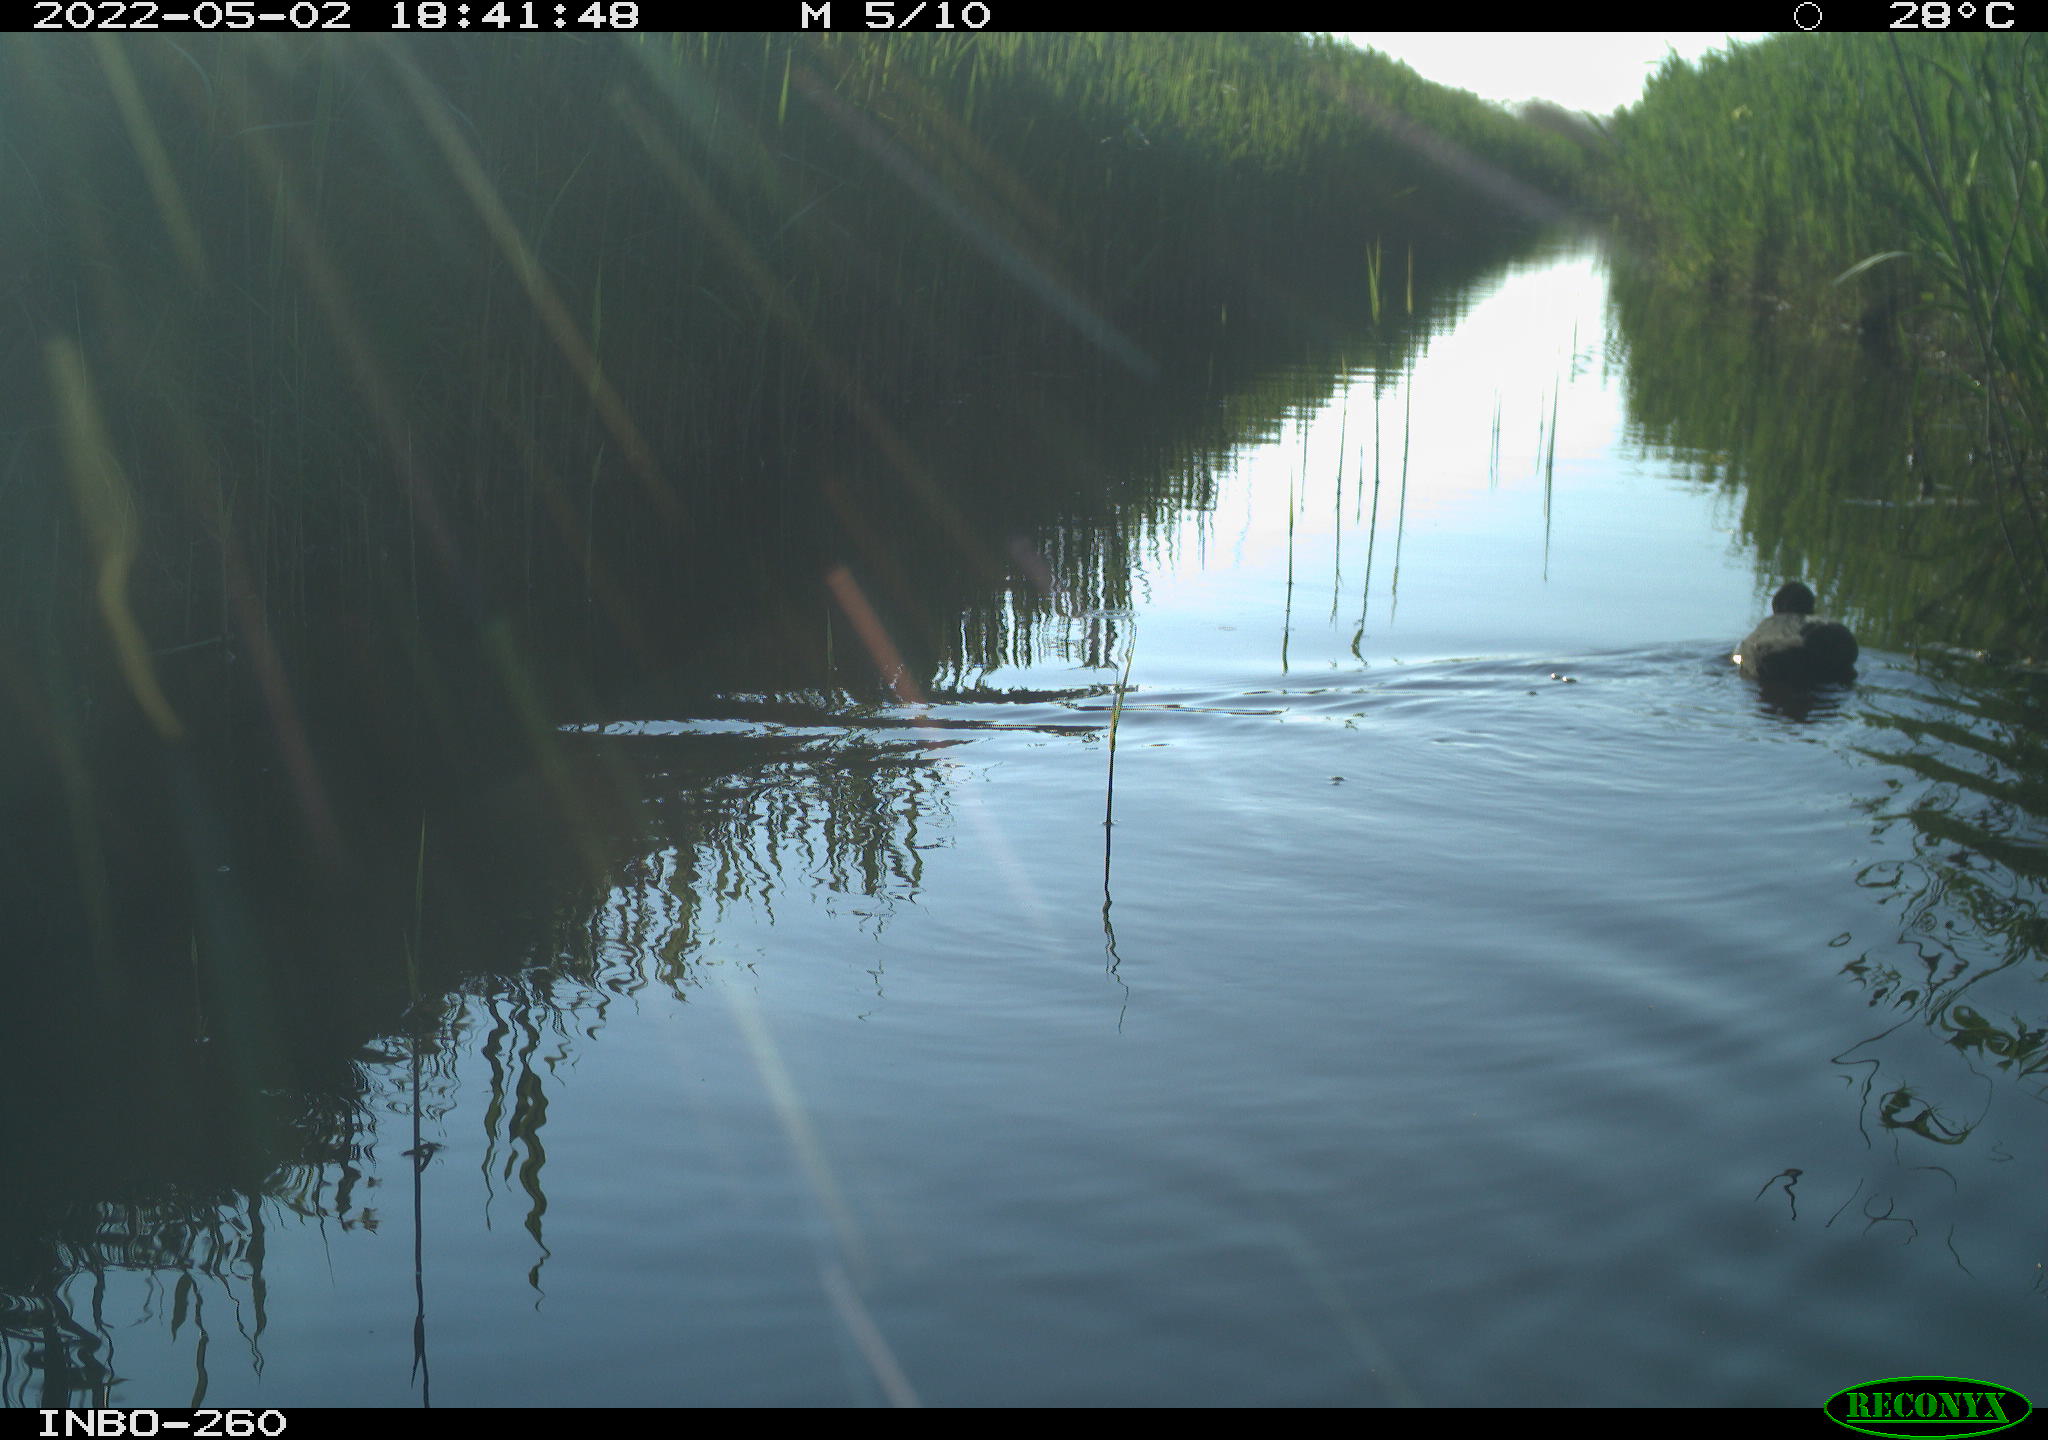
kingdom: Animalia
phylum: Chordata
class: Aves
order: Gruiformes
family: Rallidae
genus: Gallinula
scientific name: Gallinula chloropus
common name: Common moorhen
